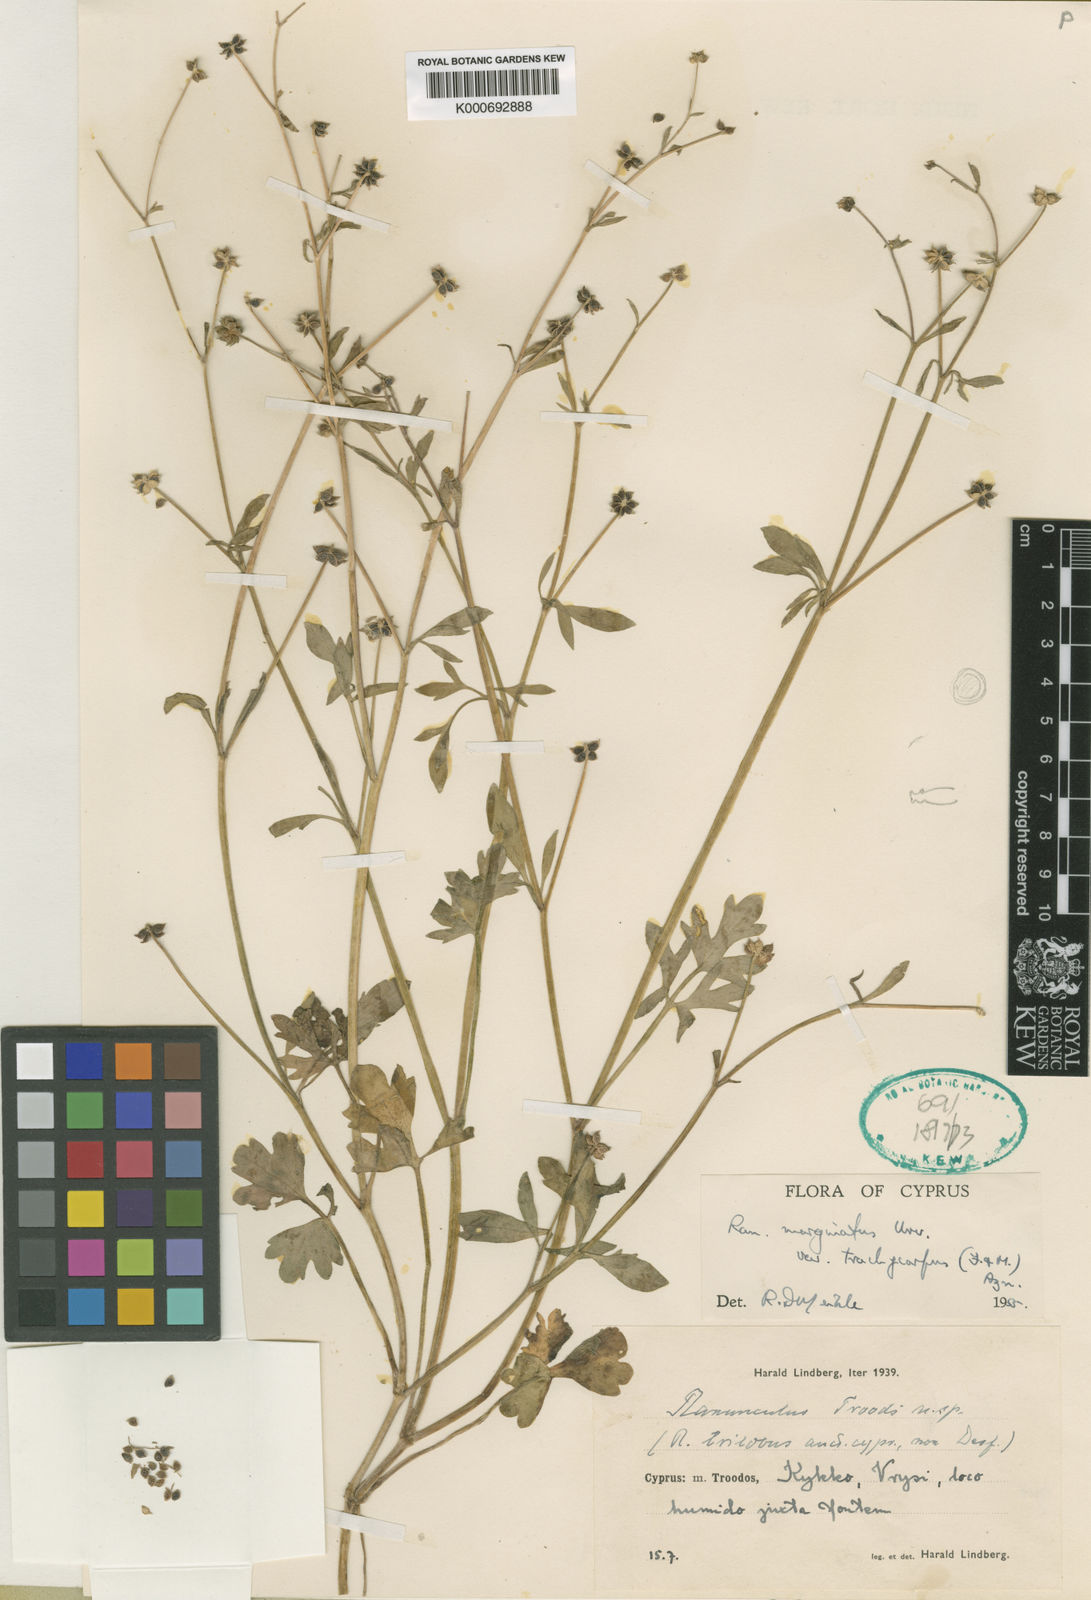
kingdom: Plantae
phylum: Tracheophyta
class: Magnoliopsida
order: Ranunculales
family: Ranunculaceae
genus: Ranunculus
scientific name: Ranunculus marginatus
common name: St. martin's buttercup
